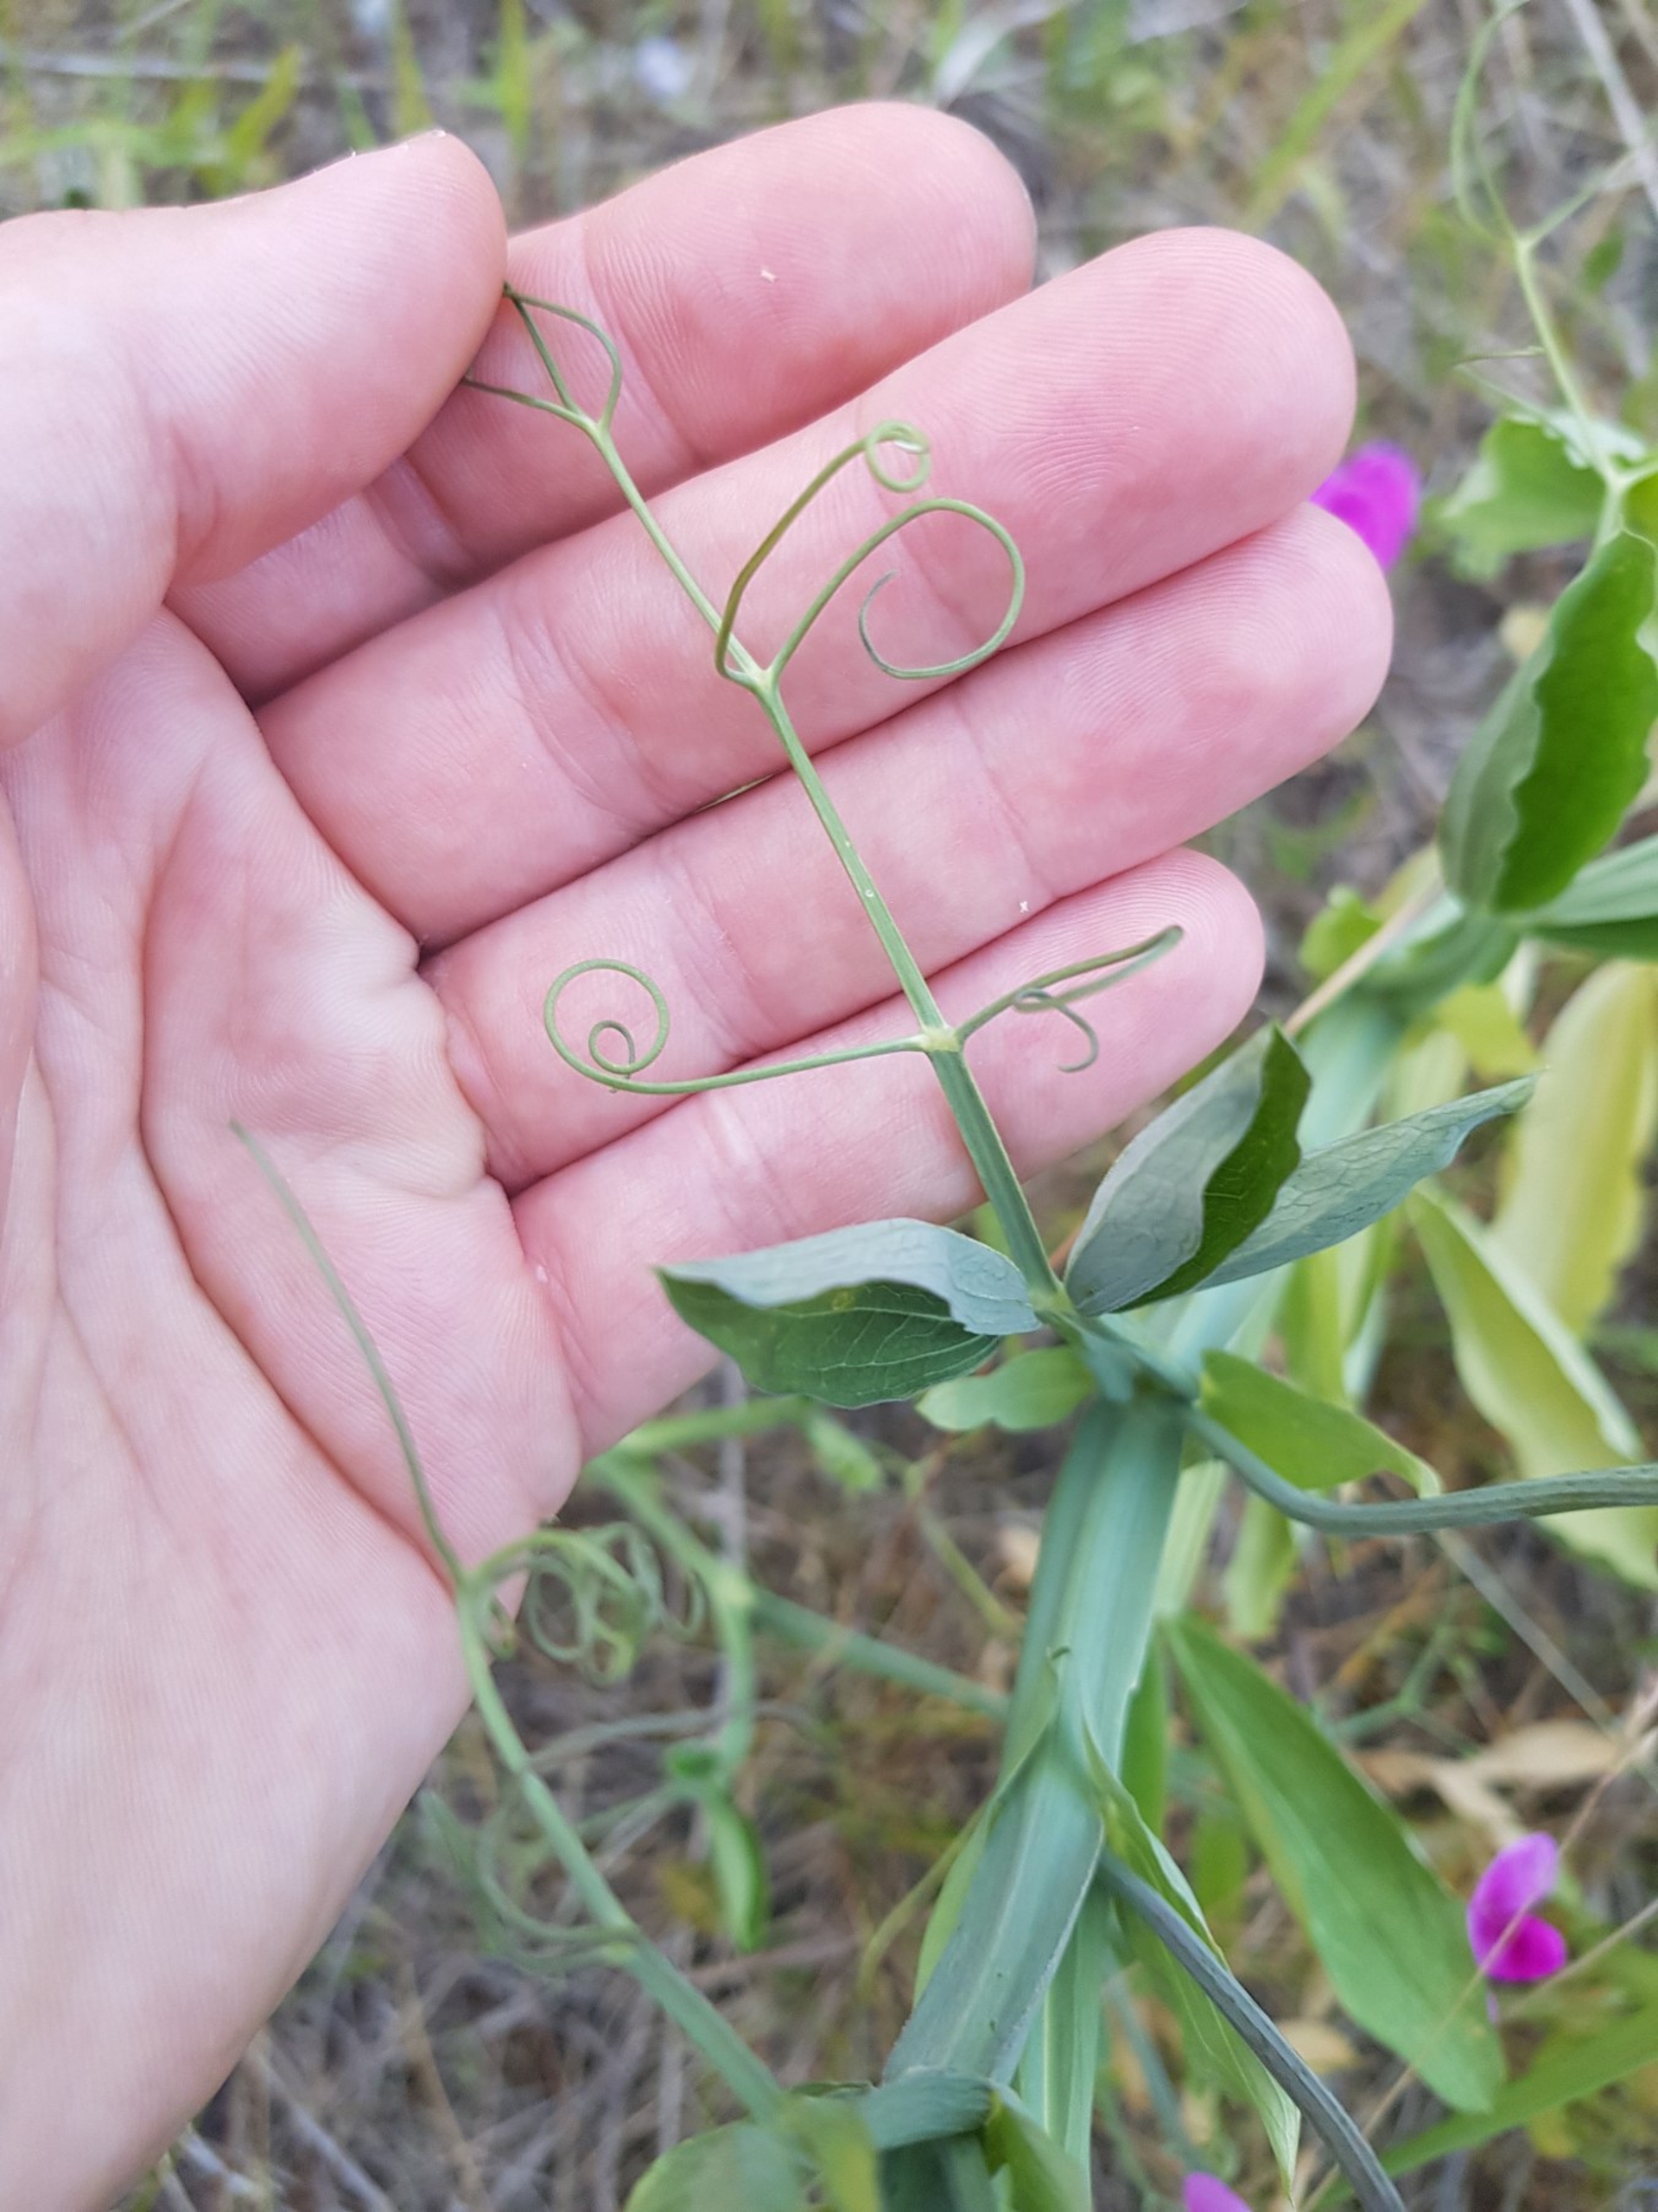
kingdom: Plantae
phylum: Tracheophyta
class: Magnoliopsida
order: Fabales
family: Fabaceae
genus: Lathyrus
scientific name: Lathyrus latifolius
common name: Flerårig ærteblomst
